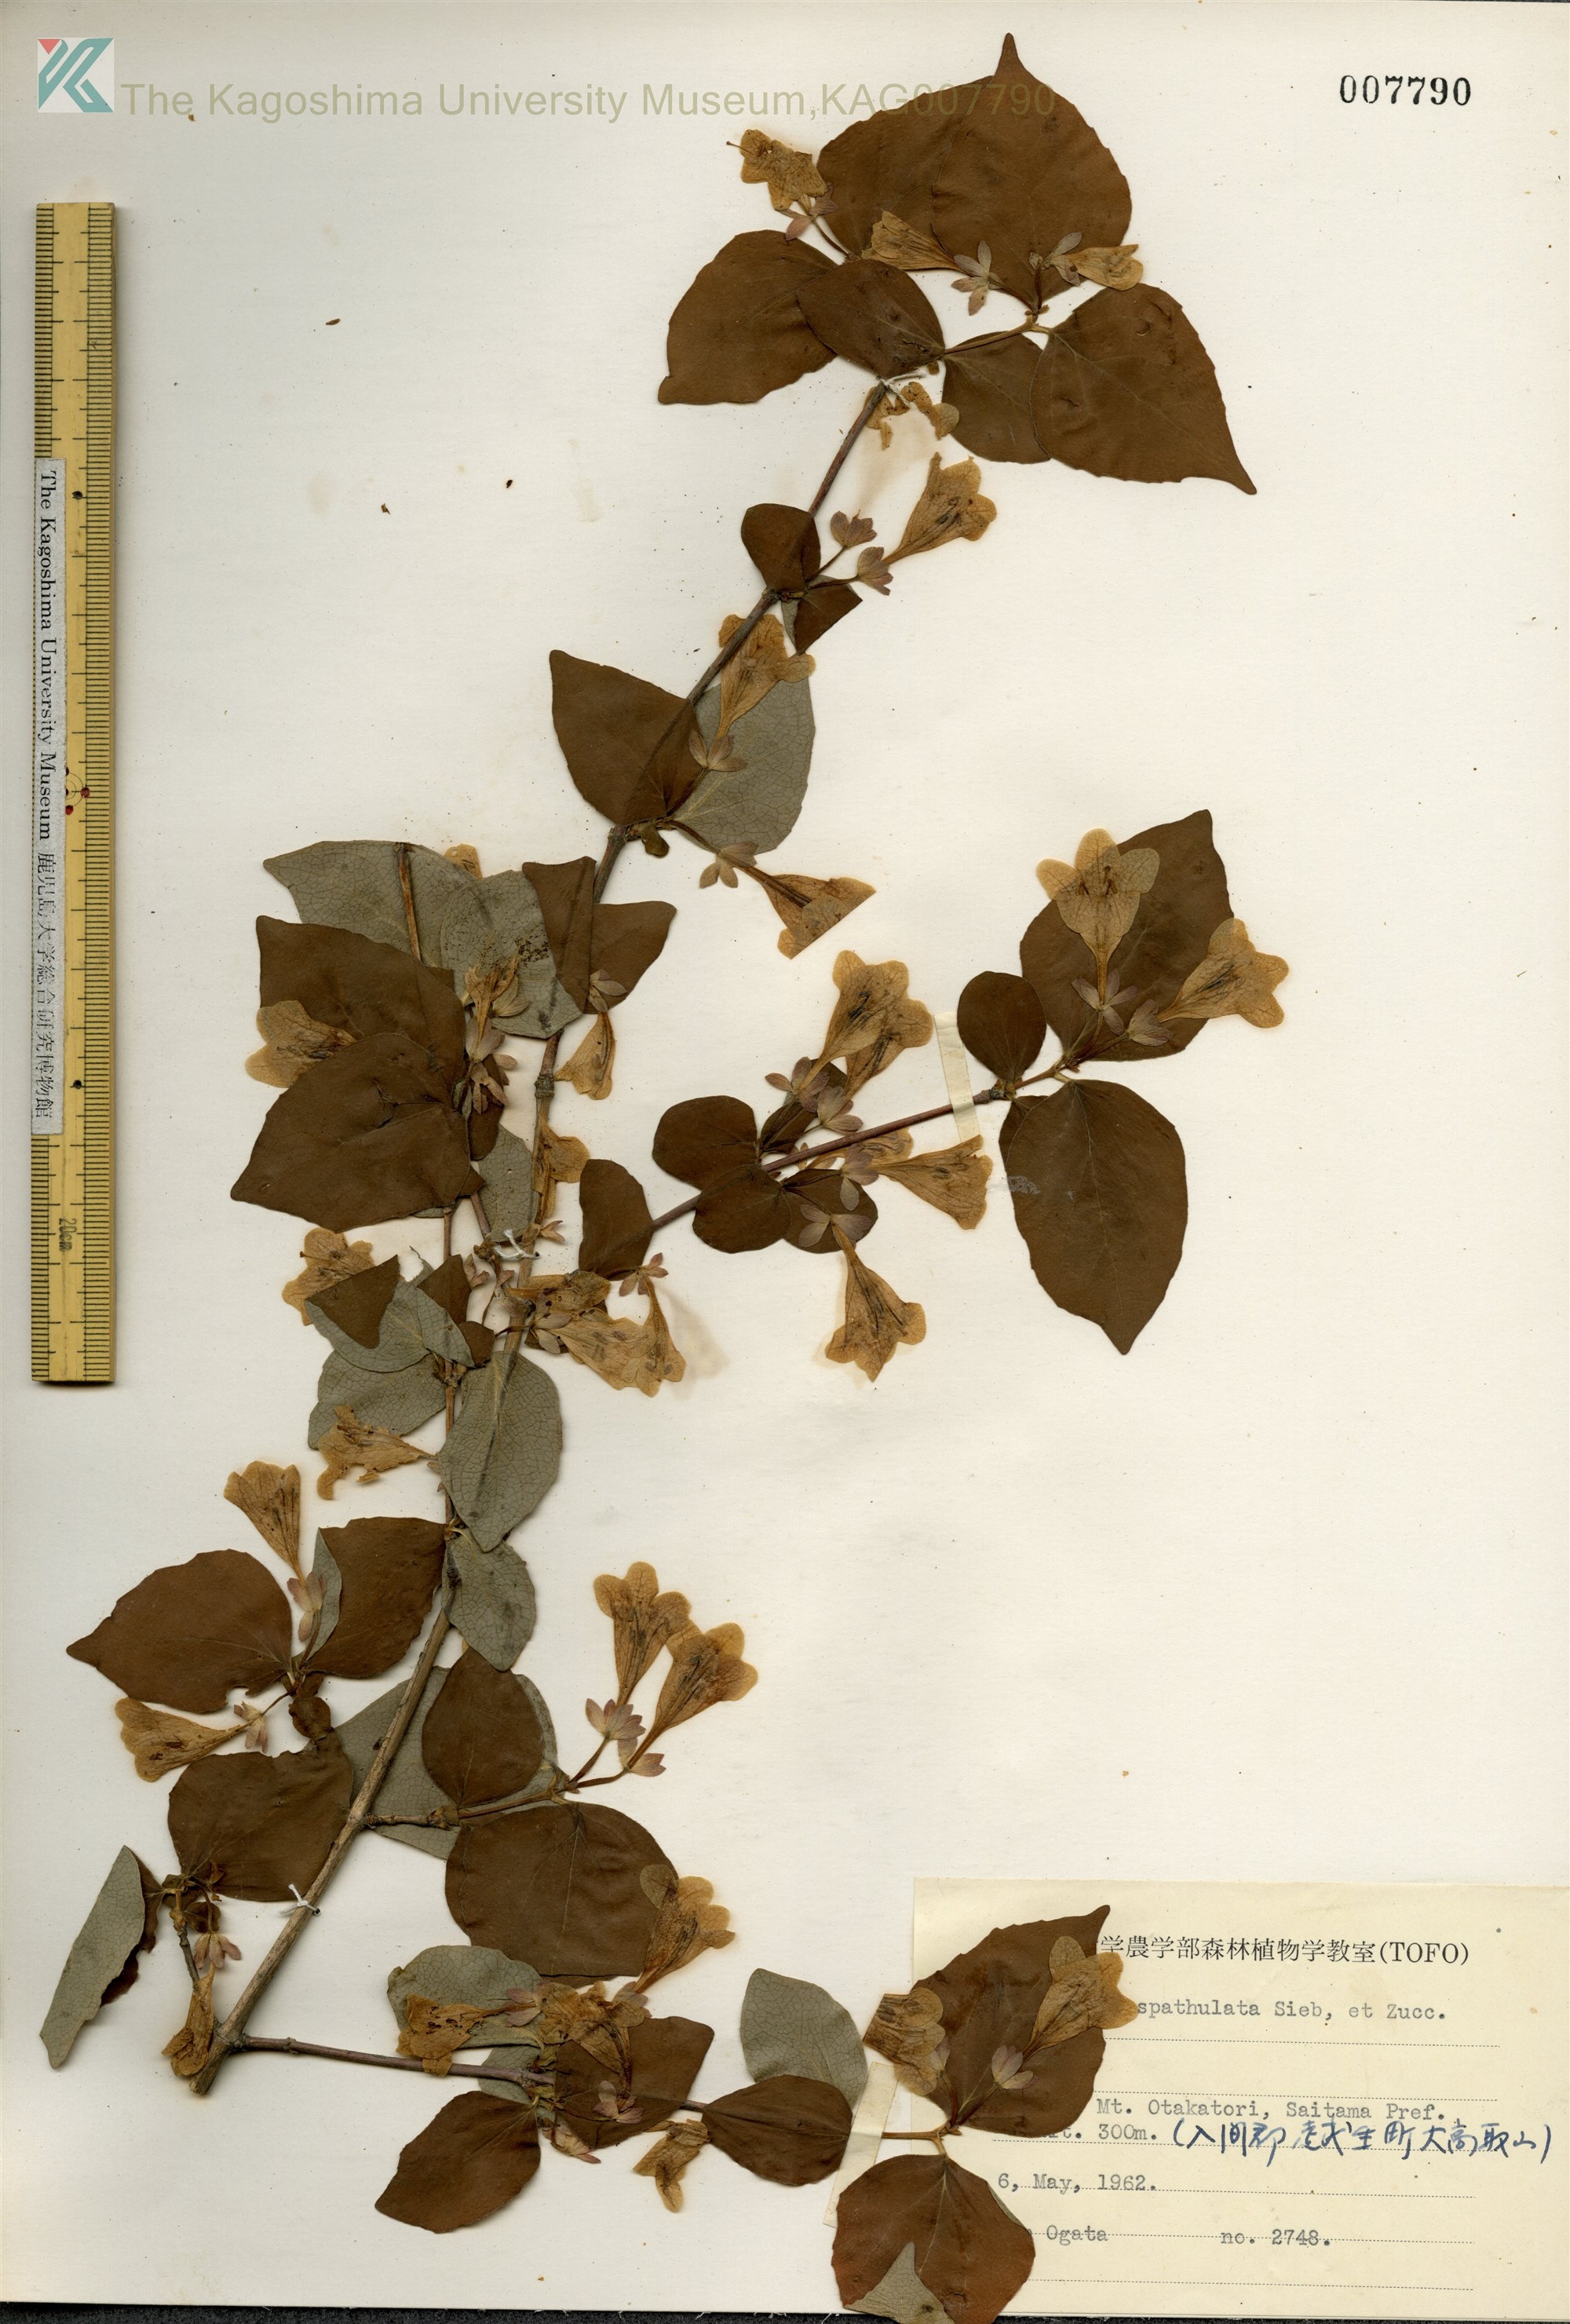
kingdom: Plantae
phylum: Tracheophyta
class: Magnoliopsida
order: Dipsacales
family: Caprifoliaceae
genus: Diabelia
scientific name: Diabelia spathulata
